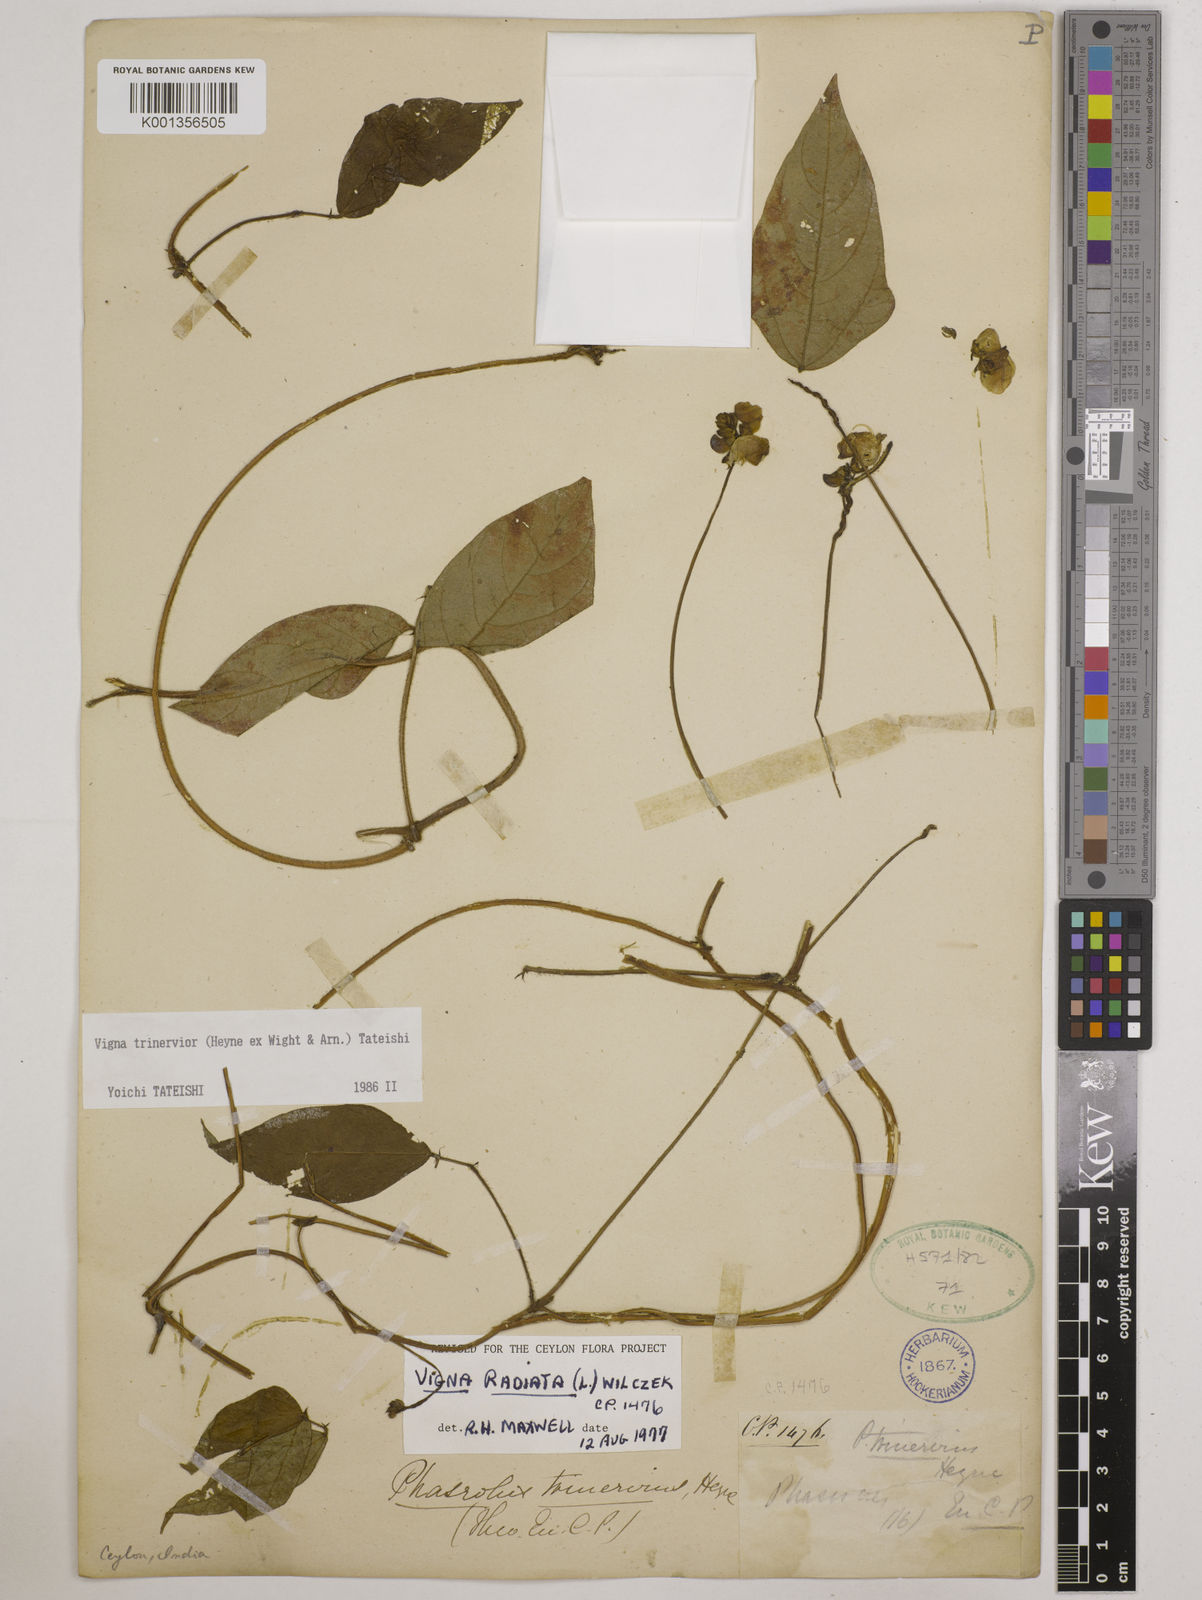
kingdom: Plantae
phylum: Tracheophyta
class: Magnoliopsida
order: Fabales
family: Fabaceae
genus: Vigna
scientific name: Vigna radiata
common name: Mung-bean
